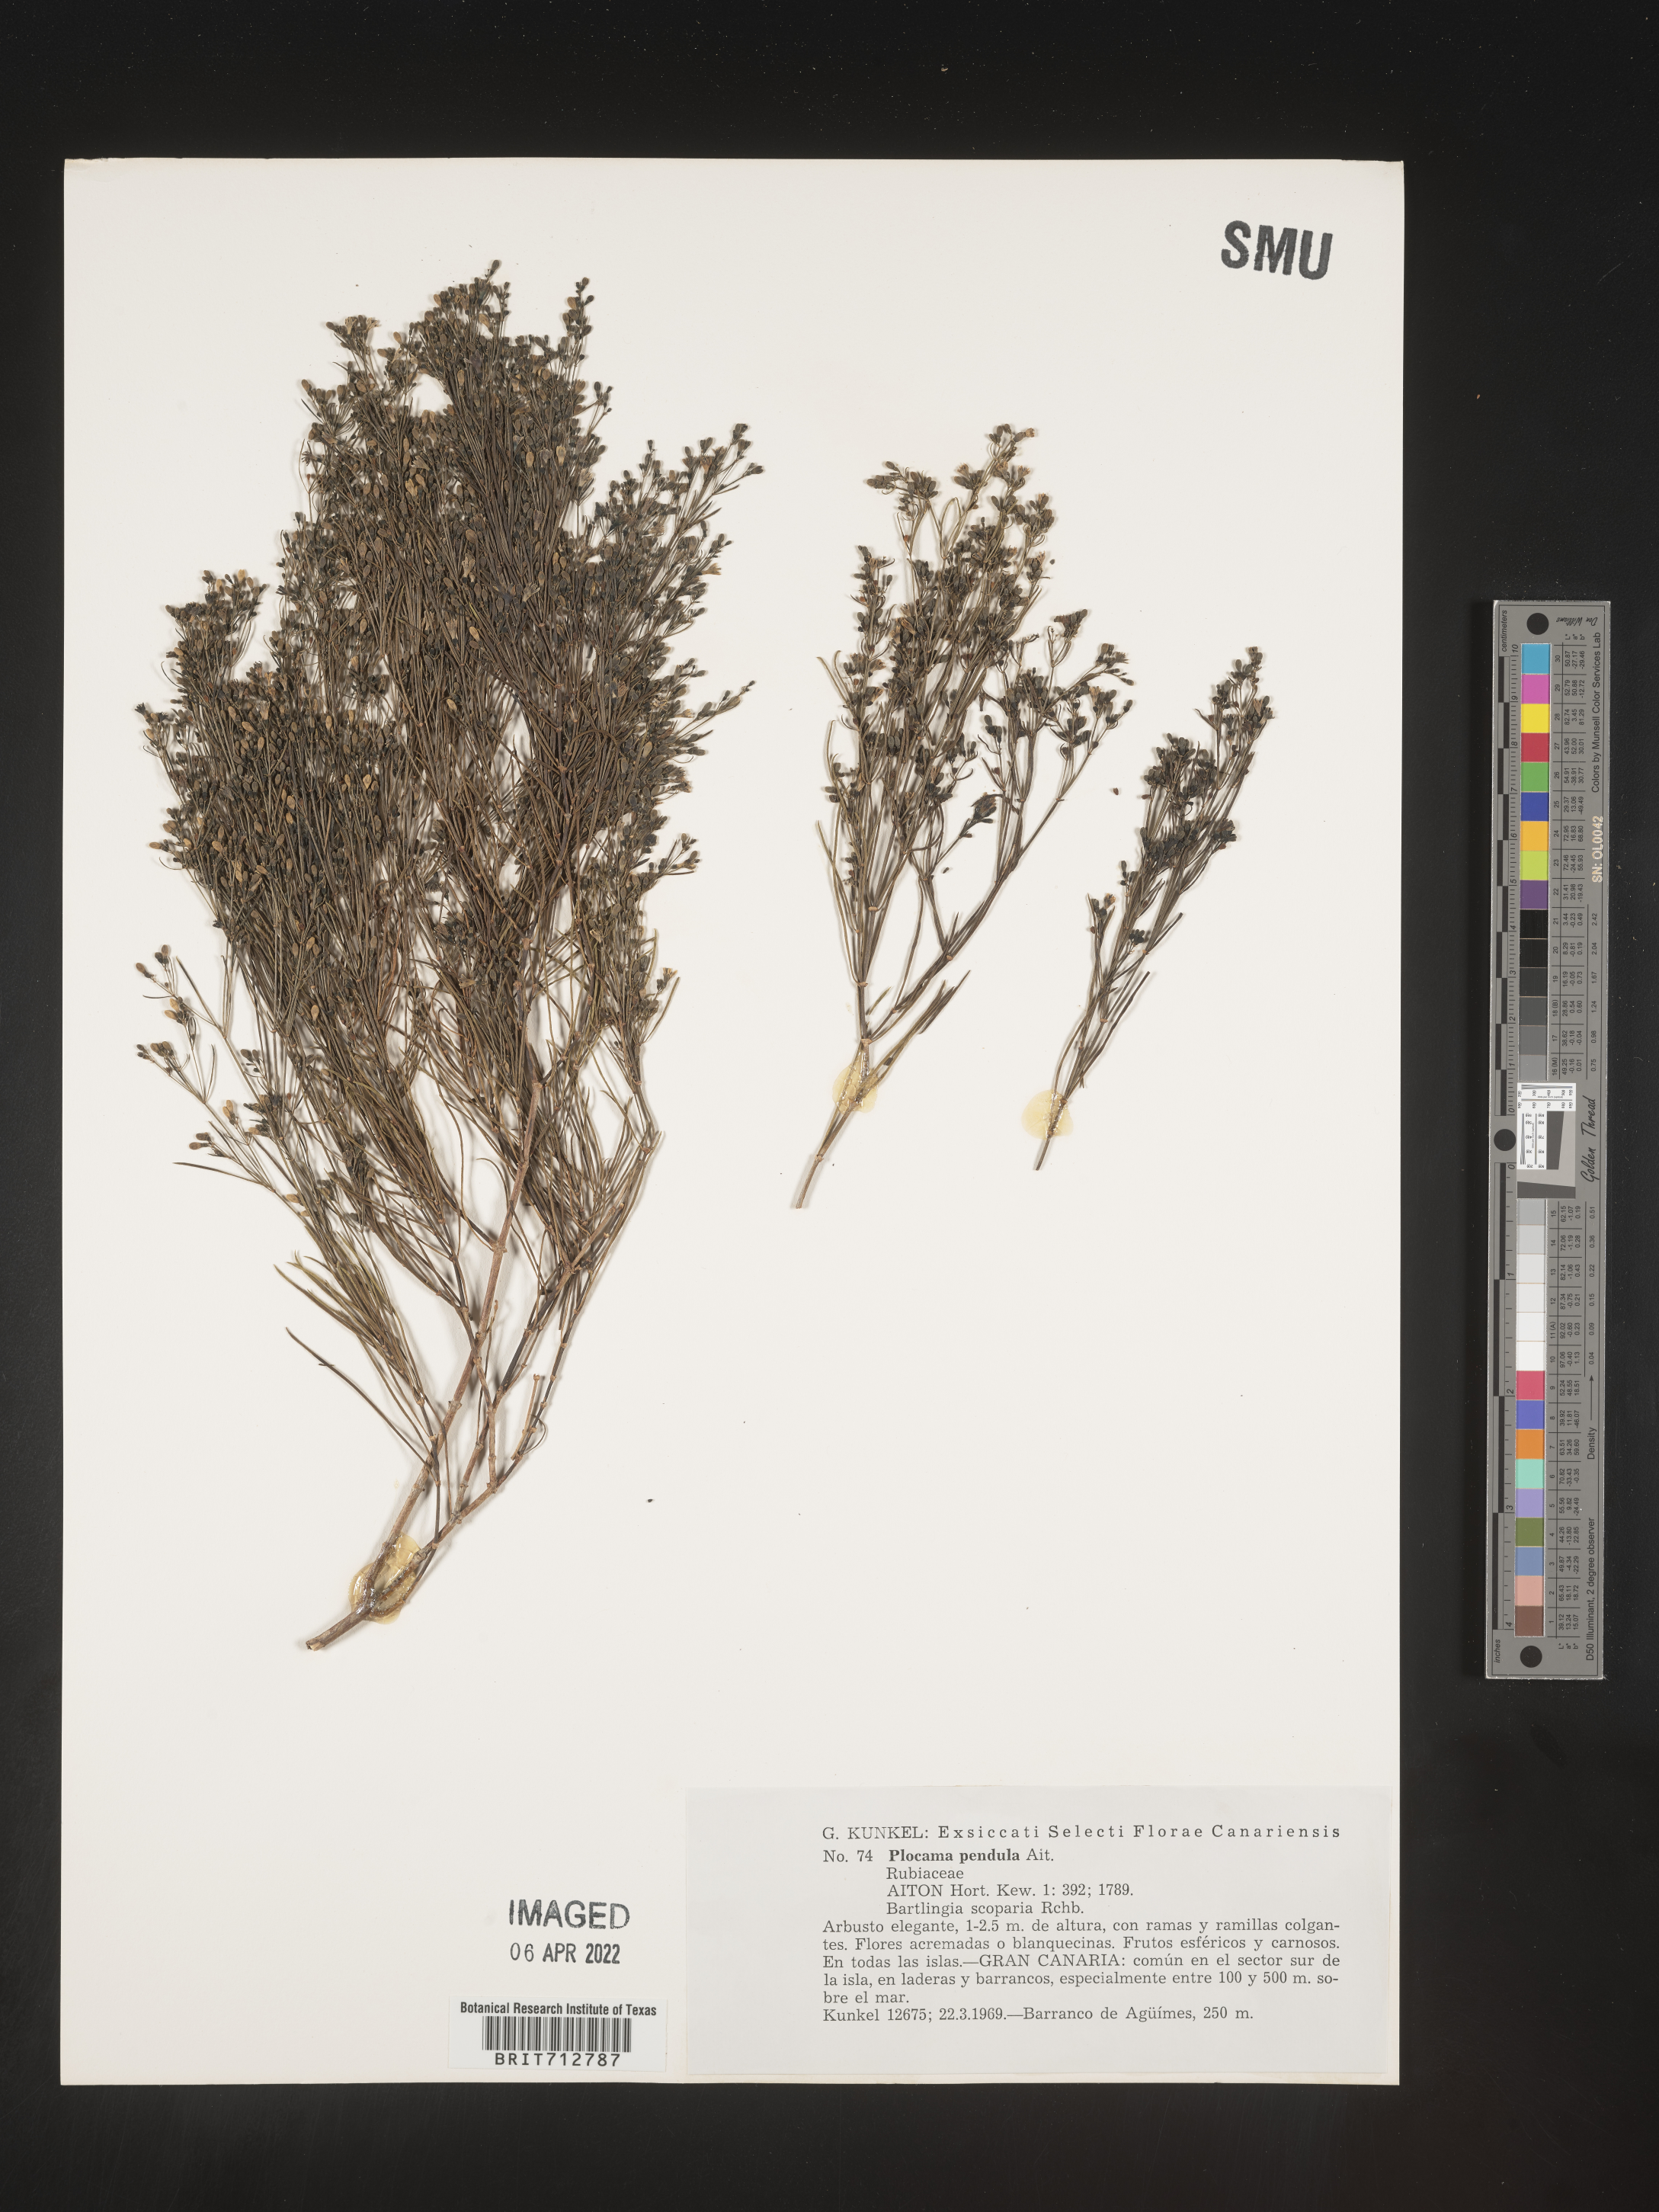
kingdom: Plantae
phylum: Tracheophyta
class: Magnoliopsida
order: Gentianales
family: Rubiaceae
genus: Plocama
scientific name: Plocama
